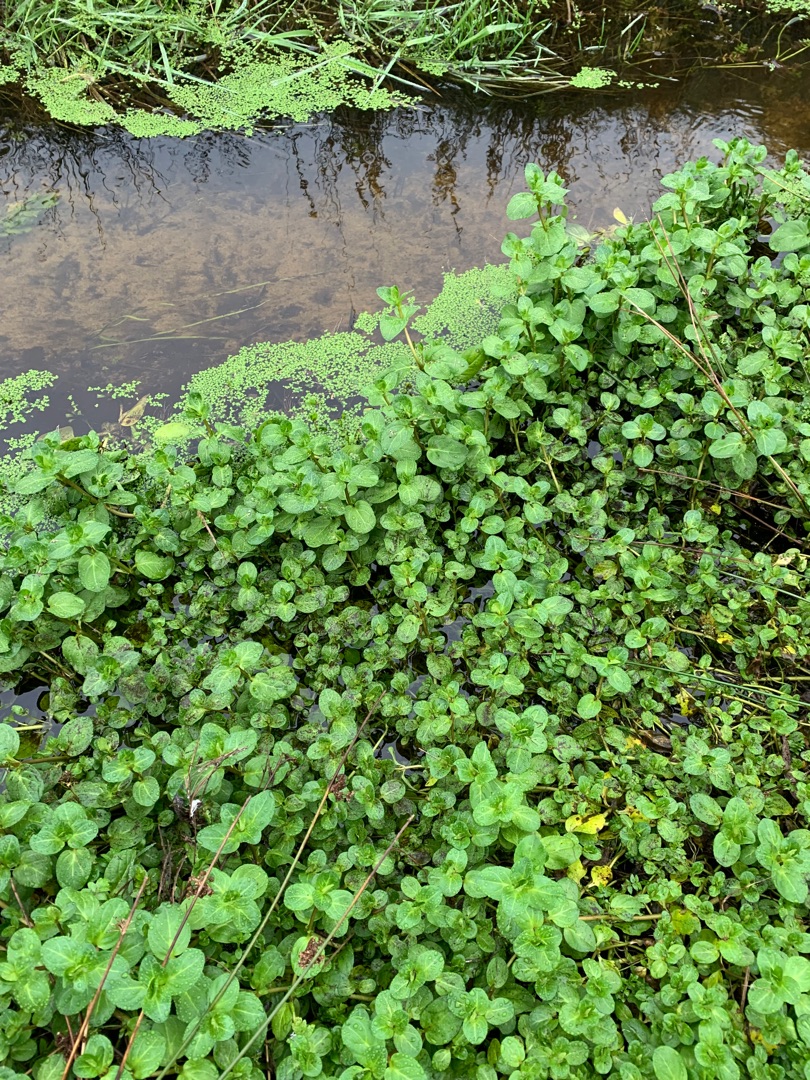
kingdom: Plantae
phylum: Tracheophyta
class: Magnoliopsida
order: Lamiales
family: Plantaginaceae
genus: Veronica
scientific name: Veronica beccabunga
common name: Tykbladet ærenpris
